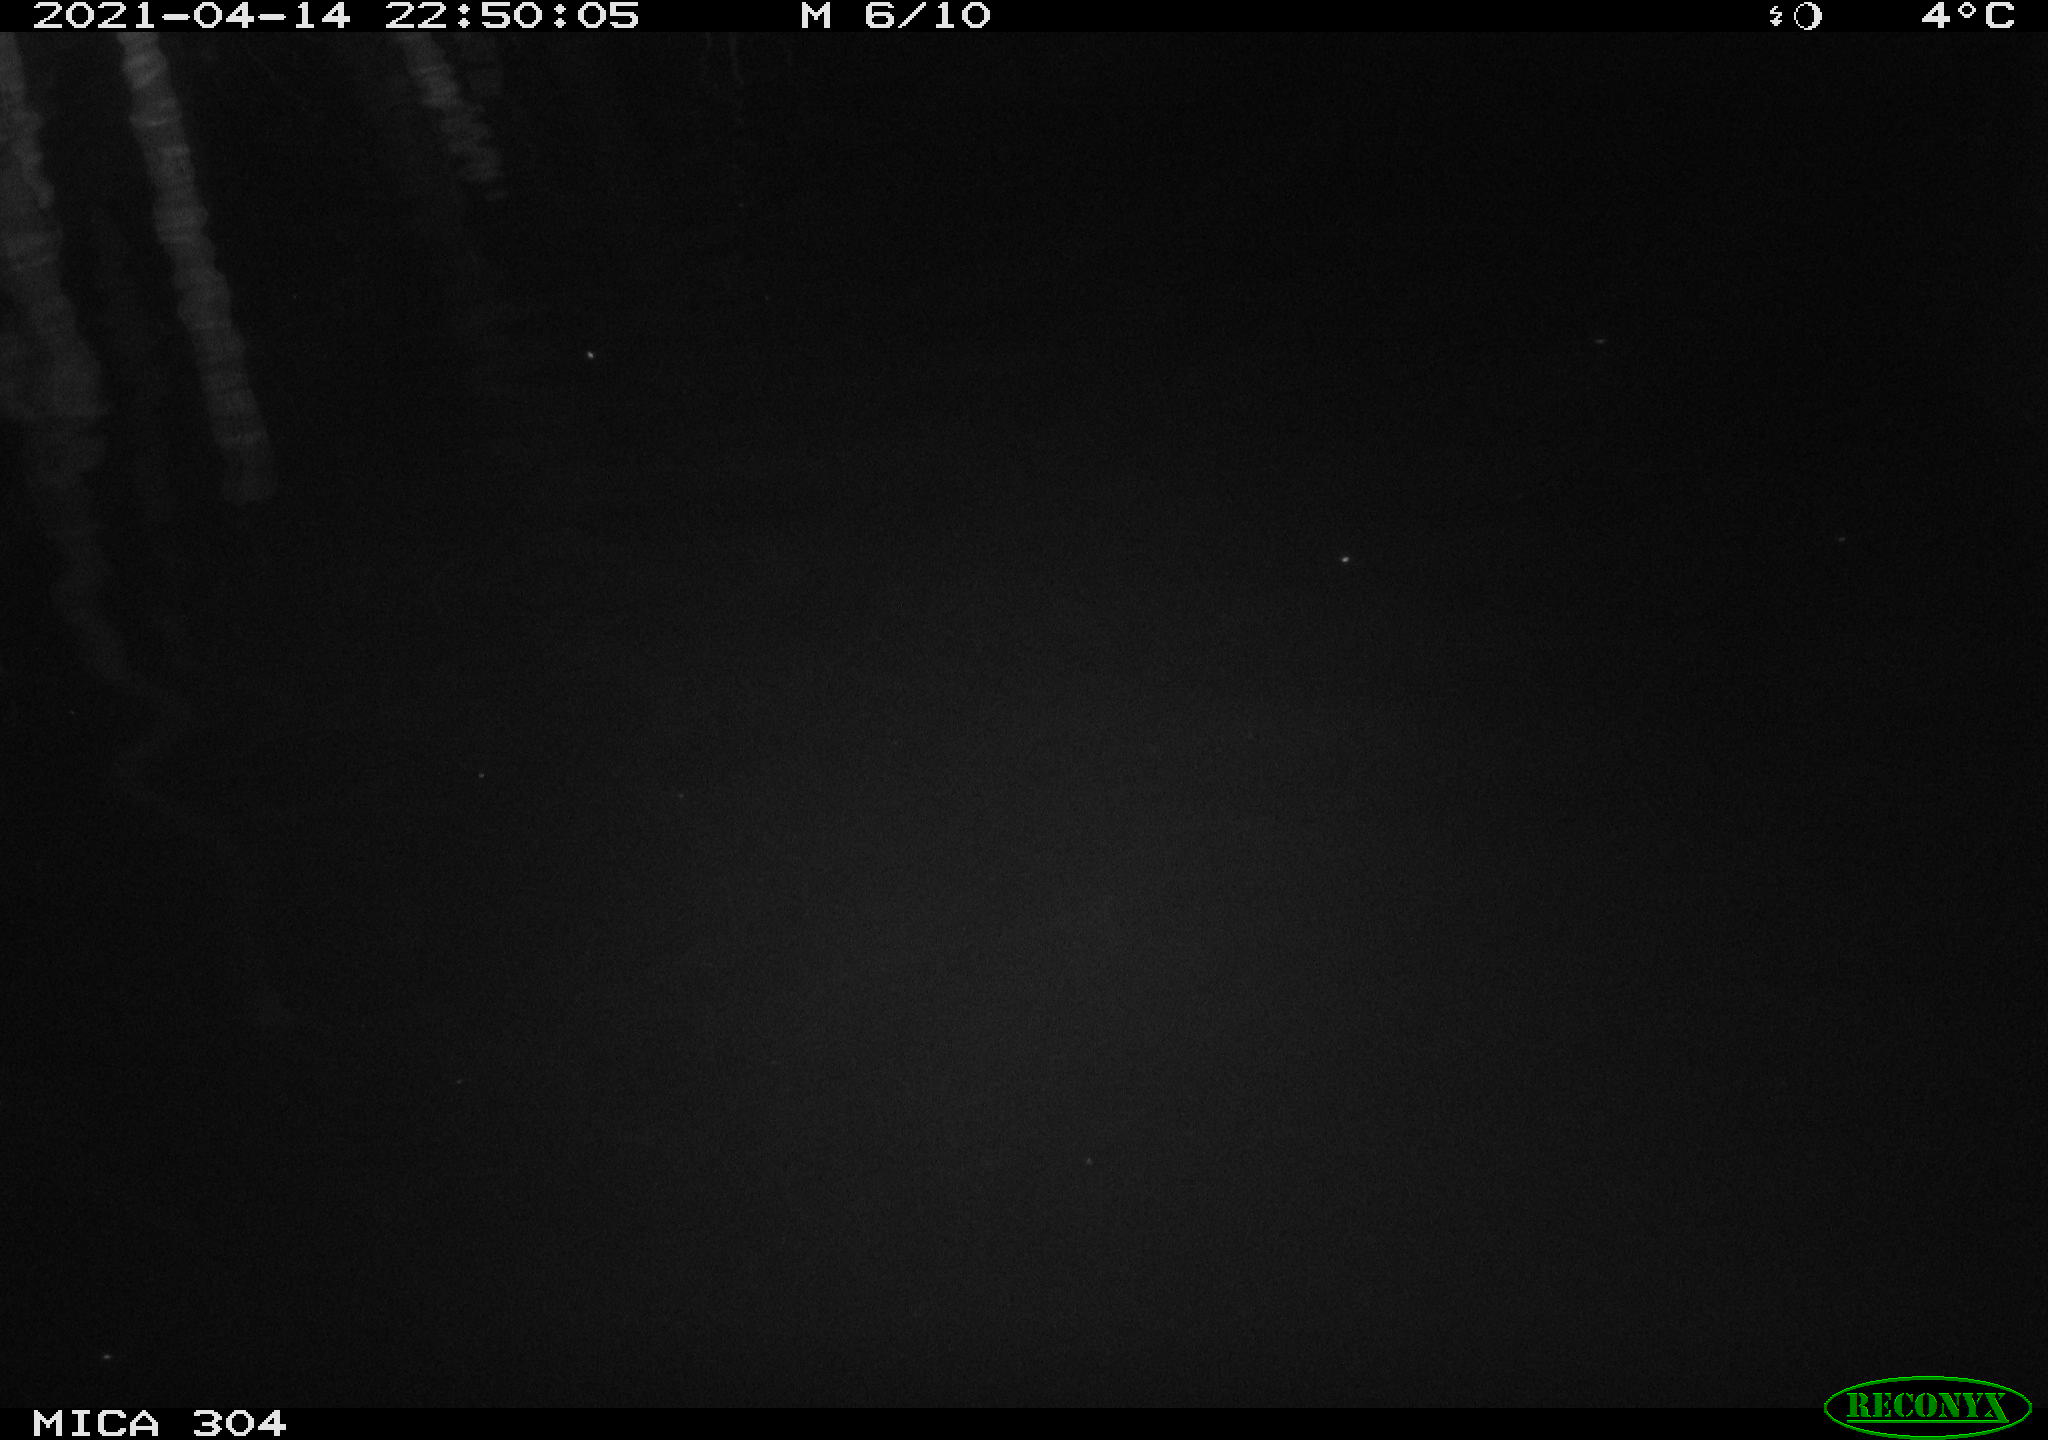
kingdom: Animalia
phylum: Chordata
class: Aves
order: Anseriformes
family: Anatidae
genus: Anas
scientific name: Anas
